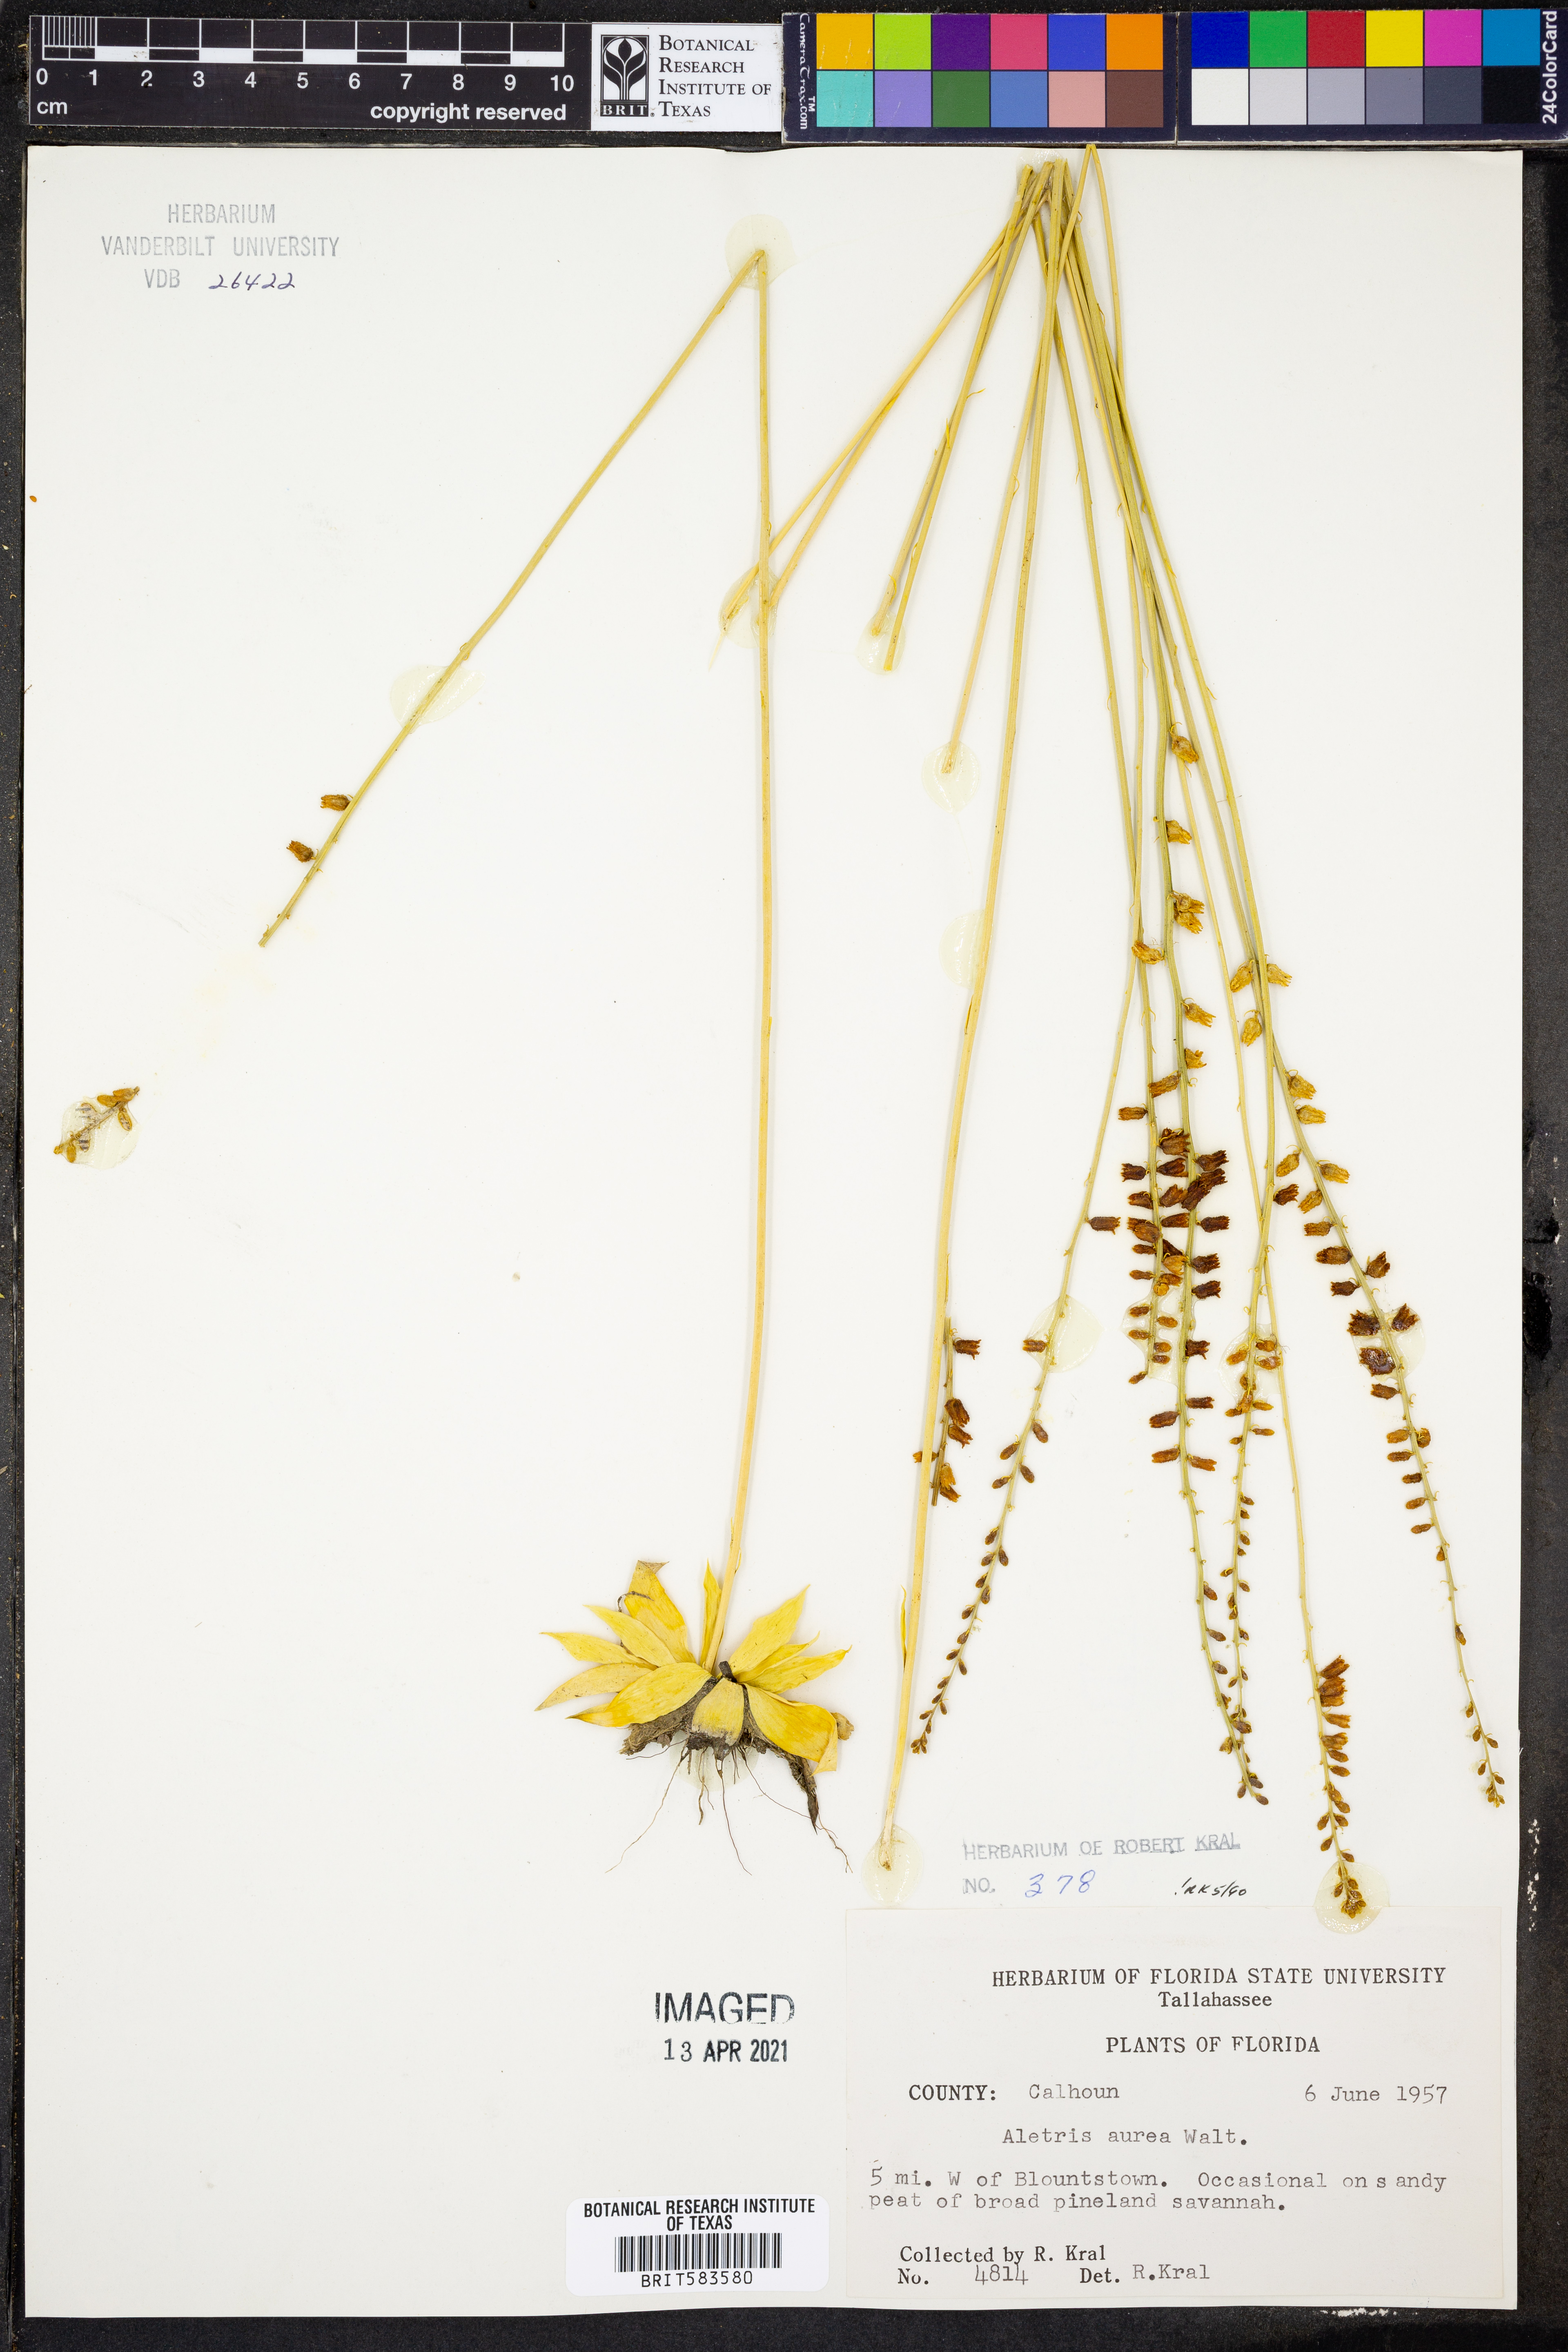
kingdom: Plantae
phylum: Tracheophyta
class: Liliopsida
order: Dioscoreales
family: Nartheciaceae
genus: Aletris
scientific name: Aletris aurea
